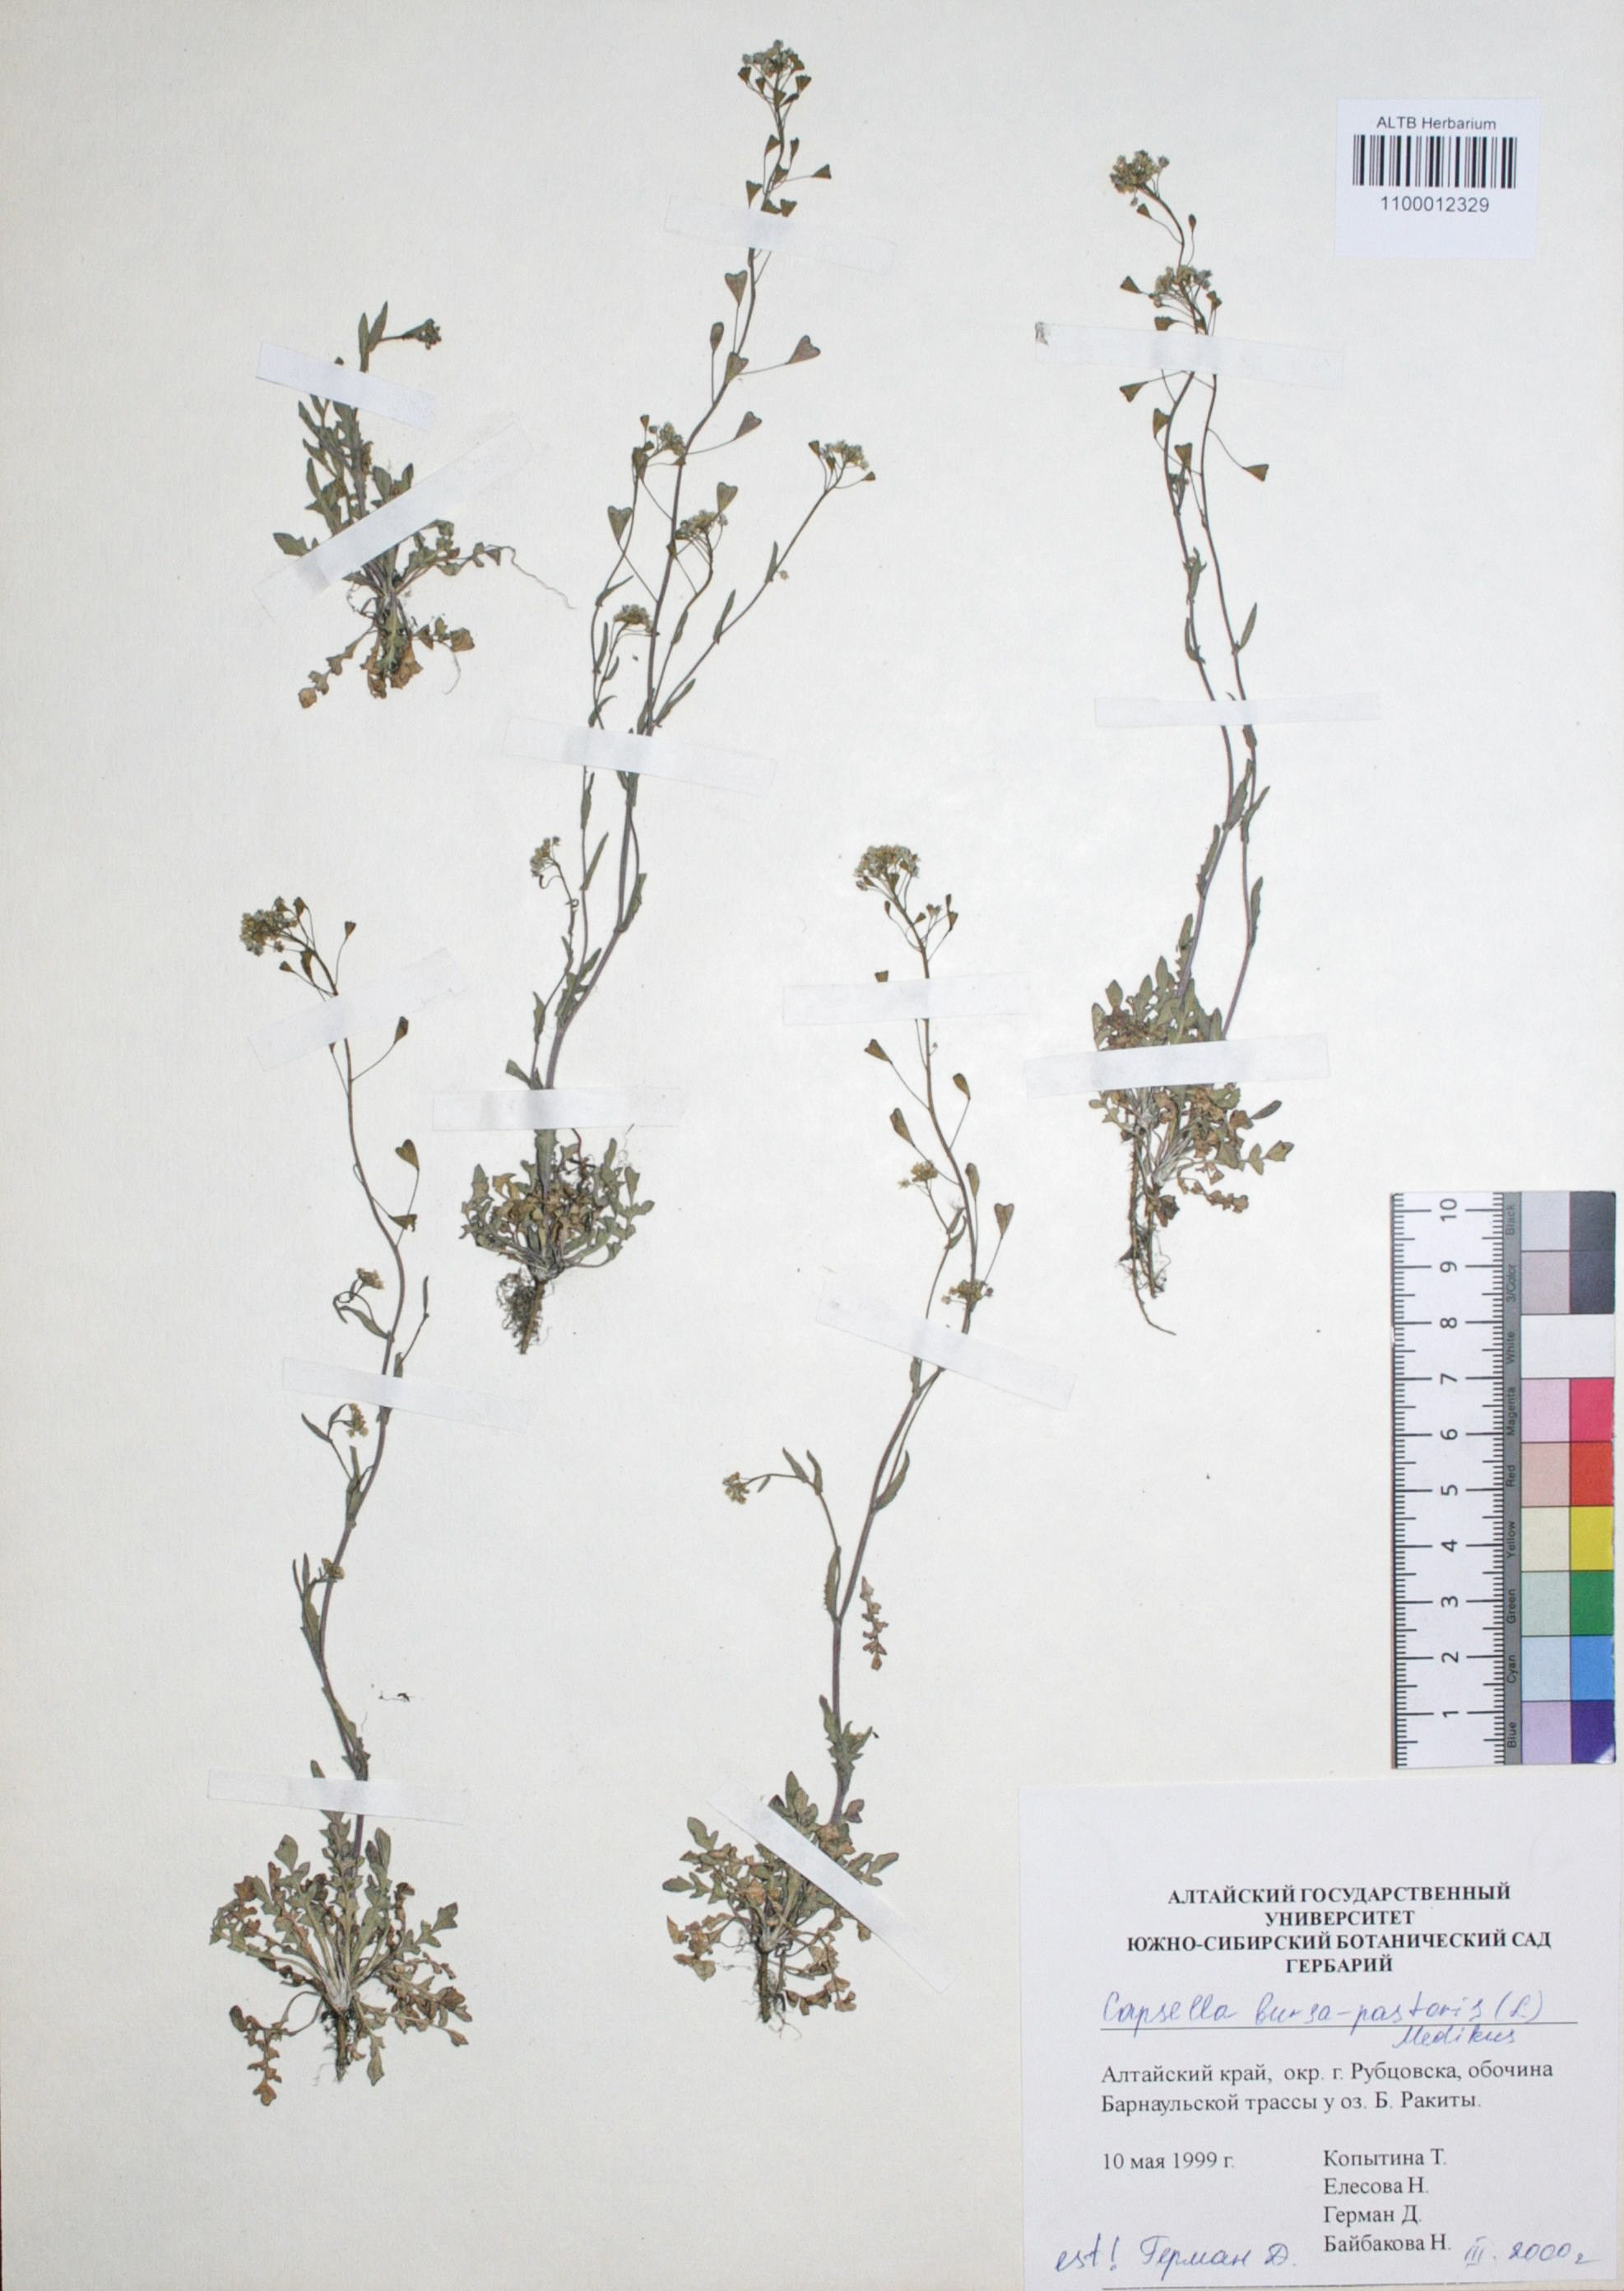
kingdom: Plantae
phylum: Tracheophyta
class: Magnoliopsida
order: Brassicales
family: Brassicaceae
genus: Capsella
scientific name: Capsella bursa-pastoris
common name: Shepherd's purse
